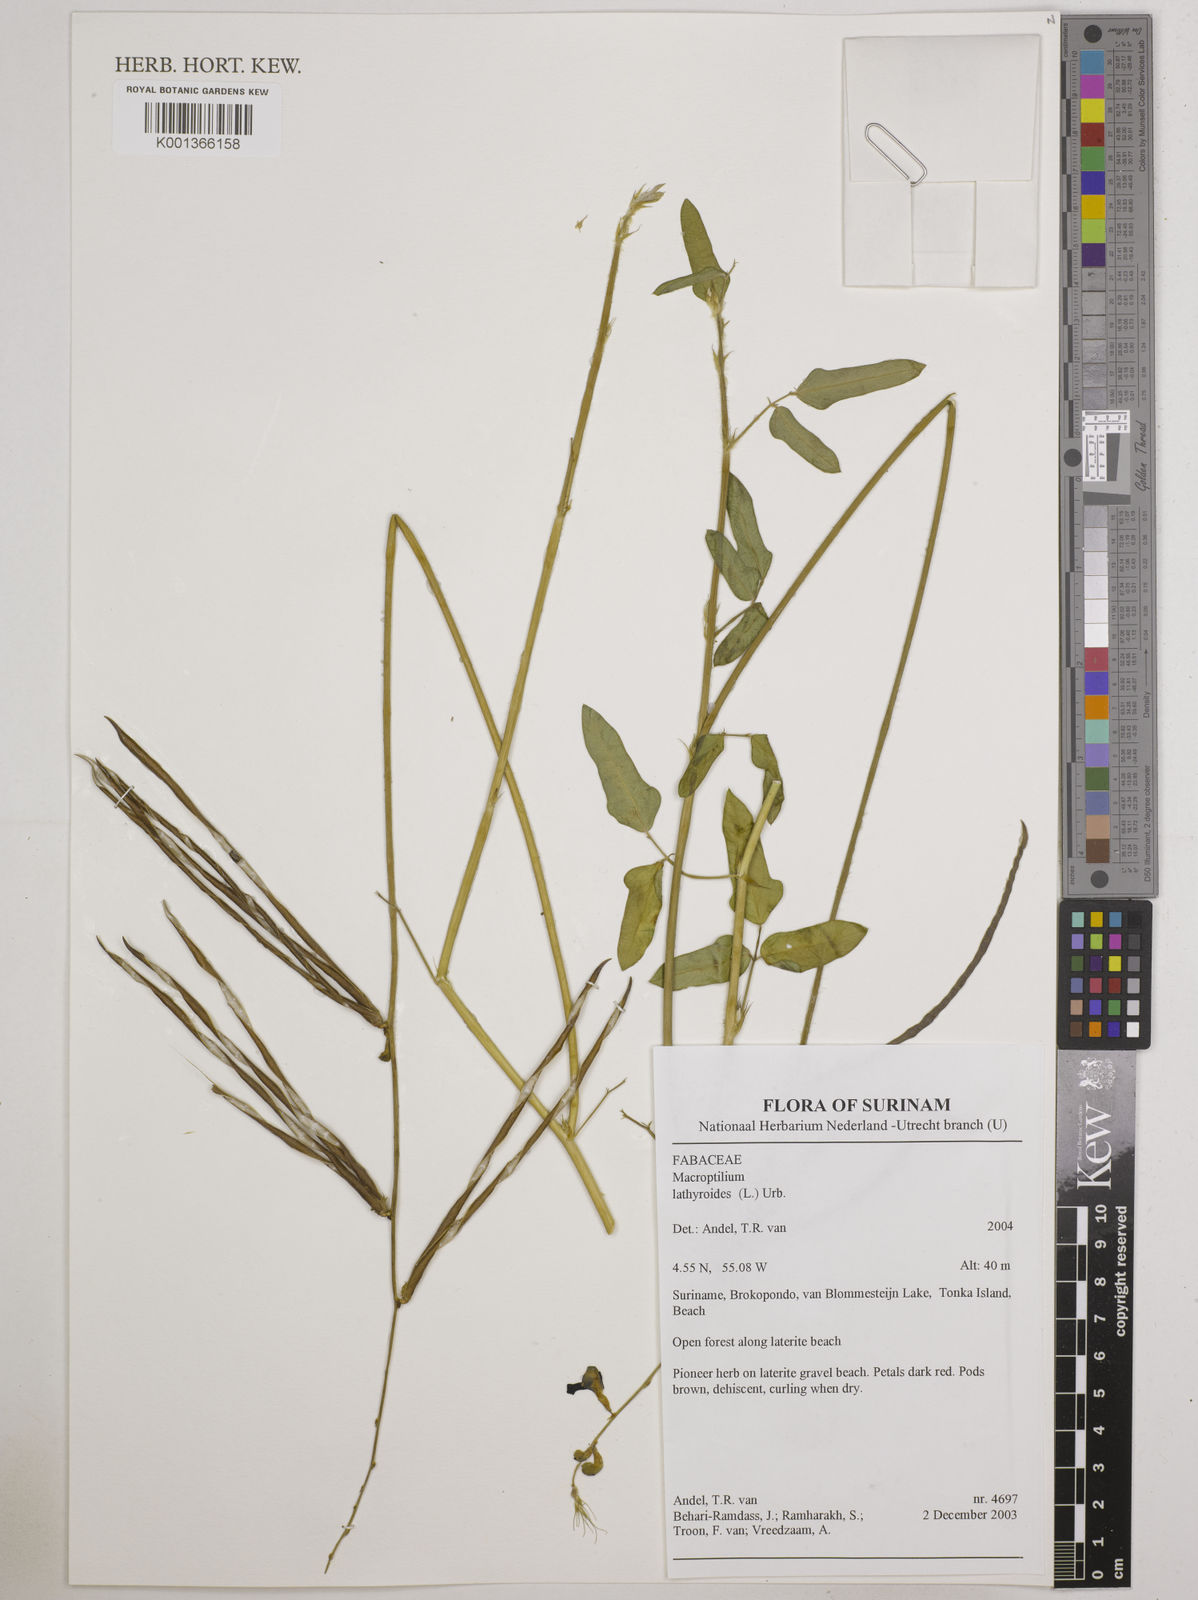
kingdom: Plantae
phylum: Tracheophyta
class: Magnoliopsida
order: Fabales
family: Fabaceae
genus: Macroptilium
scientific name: Macroptilium lathyroides
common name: Wild bushbean
